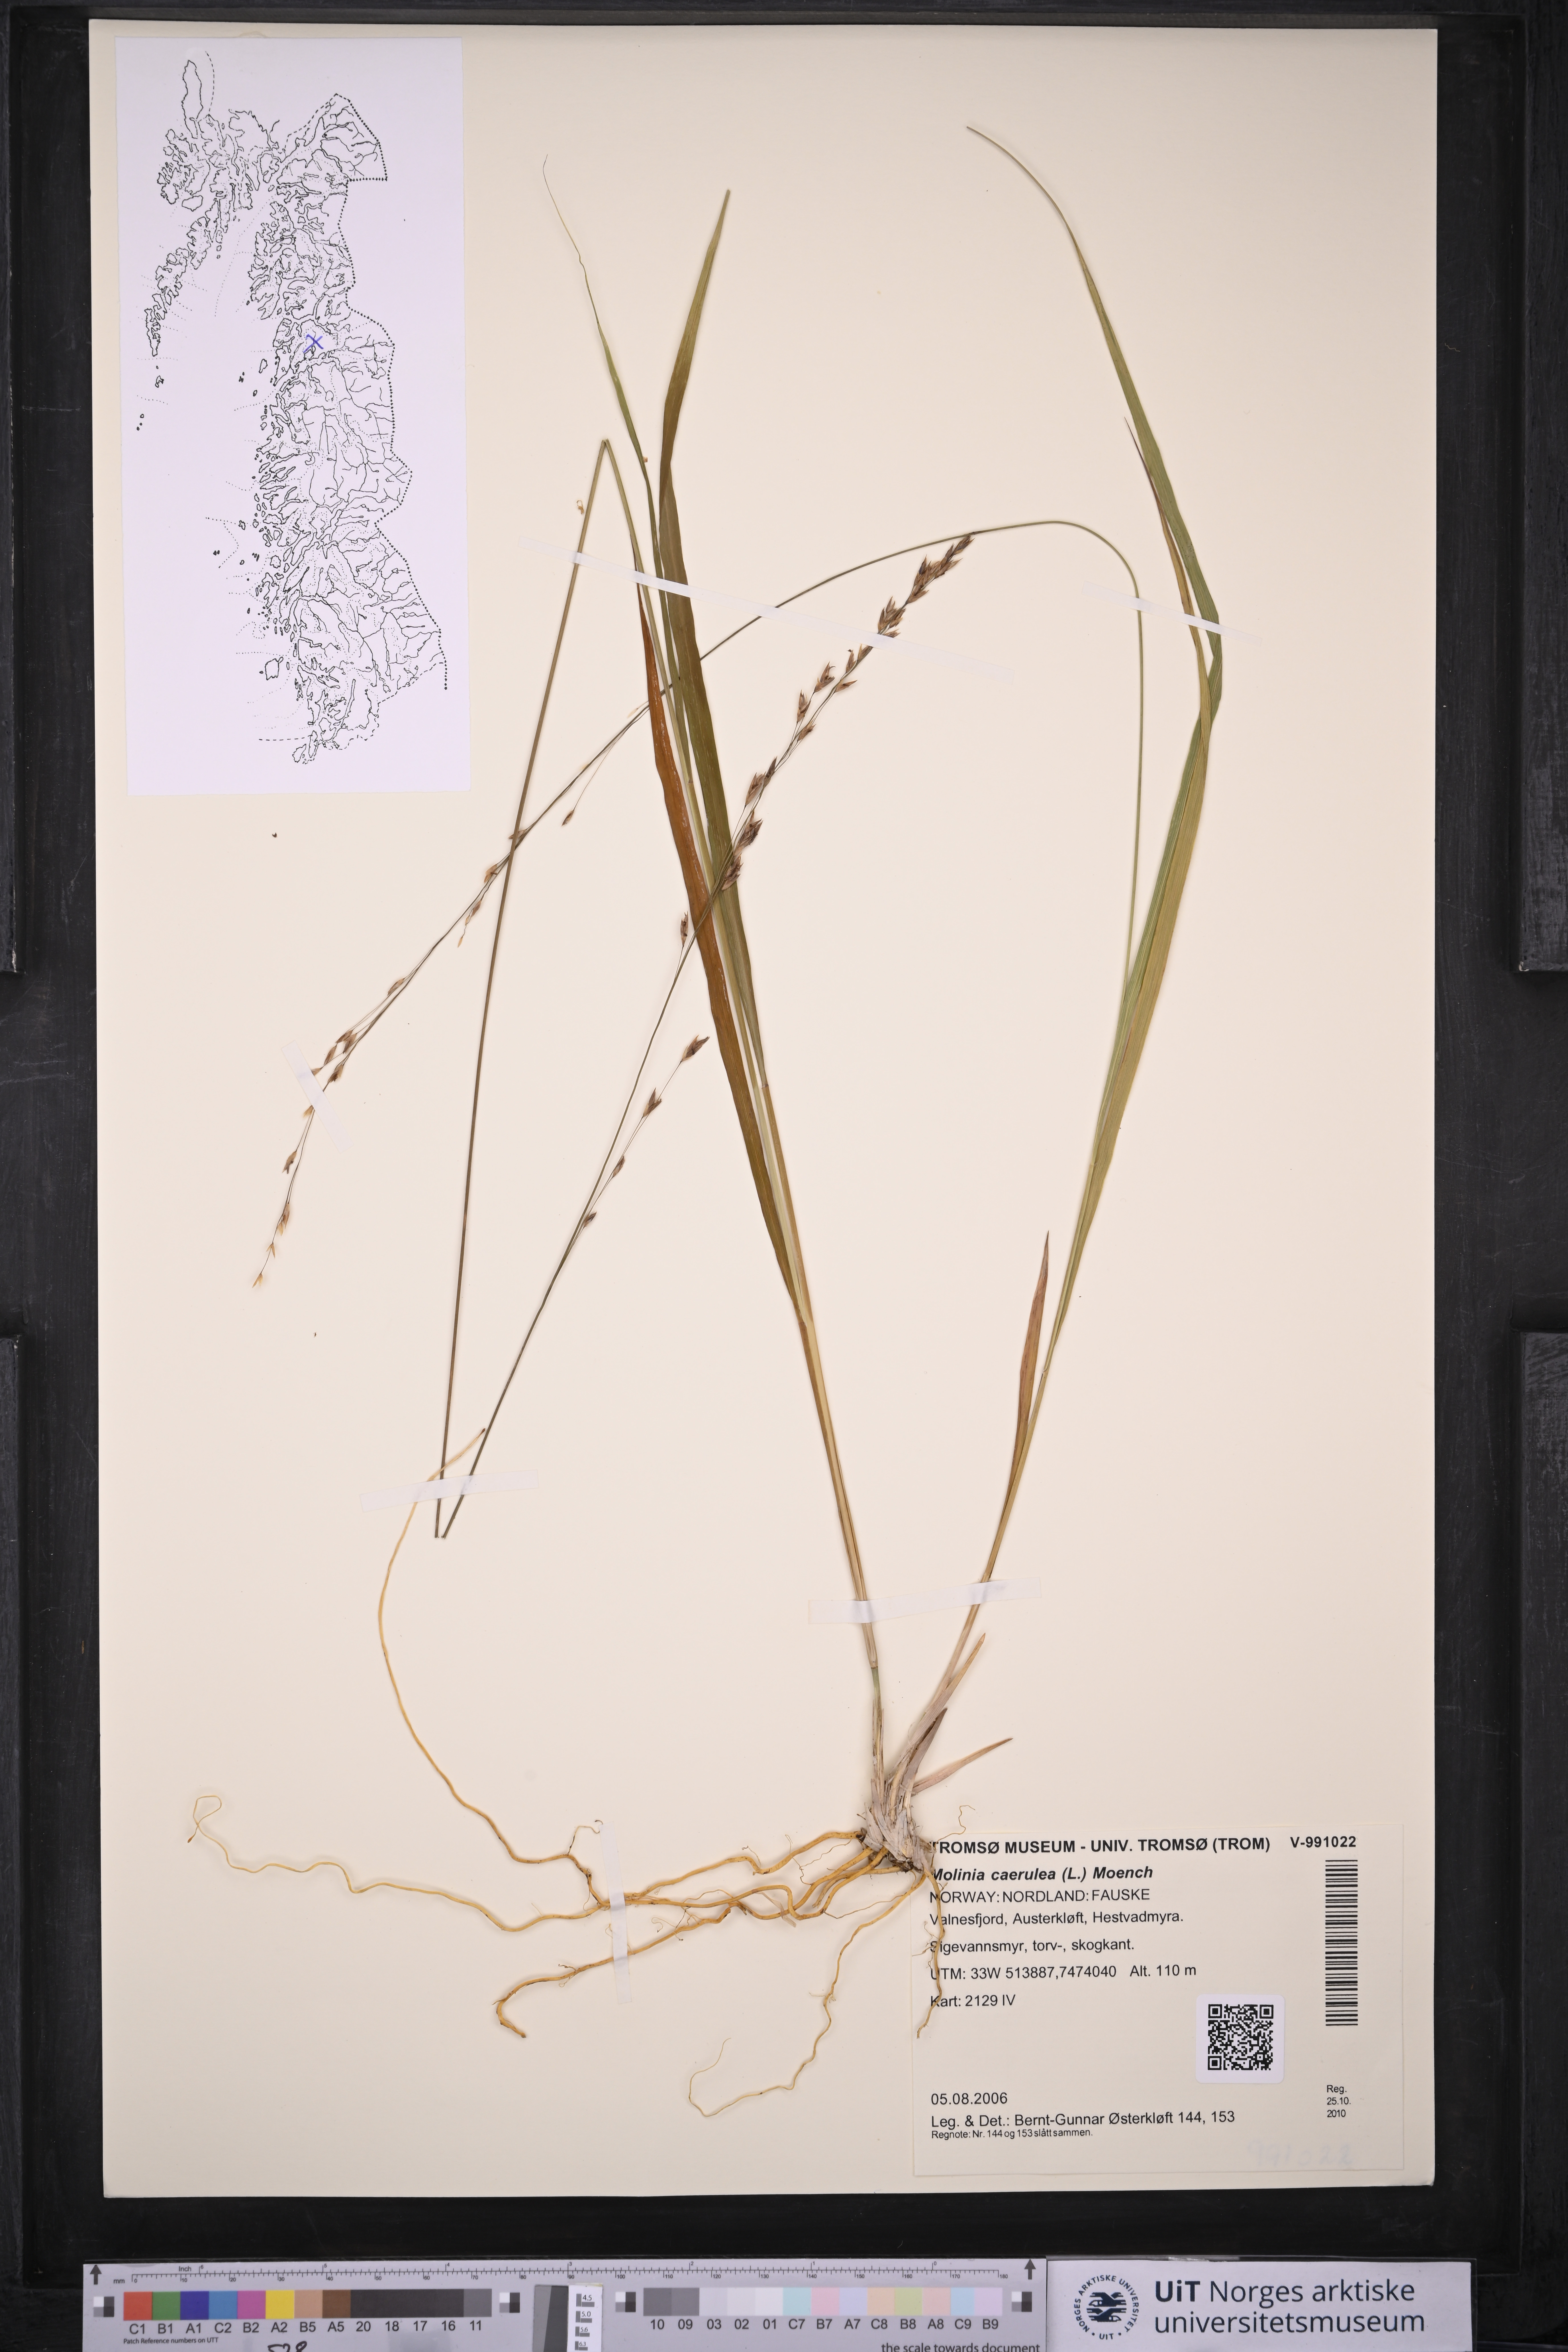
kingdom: Plantae
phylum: Tracheophyta
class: Liliopsida
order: Poales
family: Poaceae
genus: Molinia
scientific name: Molinia caerulea
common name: Purple moor-grass
